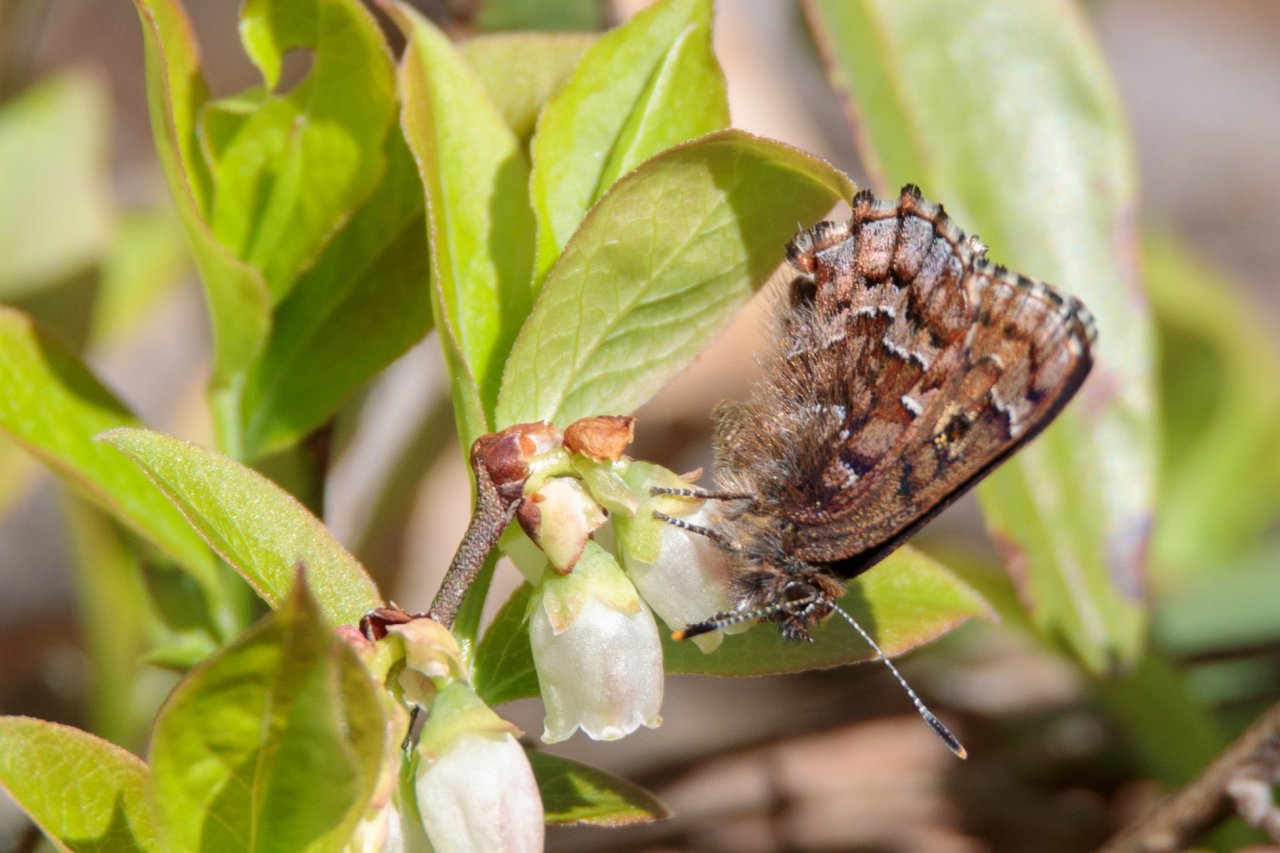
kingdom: Animalia
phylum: Arthropoda
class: Insecta
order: Lepidoptera
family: Lycaenidae
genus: Incisalia
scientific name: Incisalia niphon
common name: Eastern Pine Elfin
